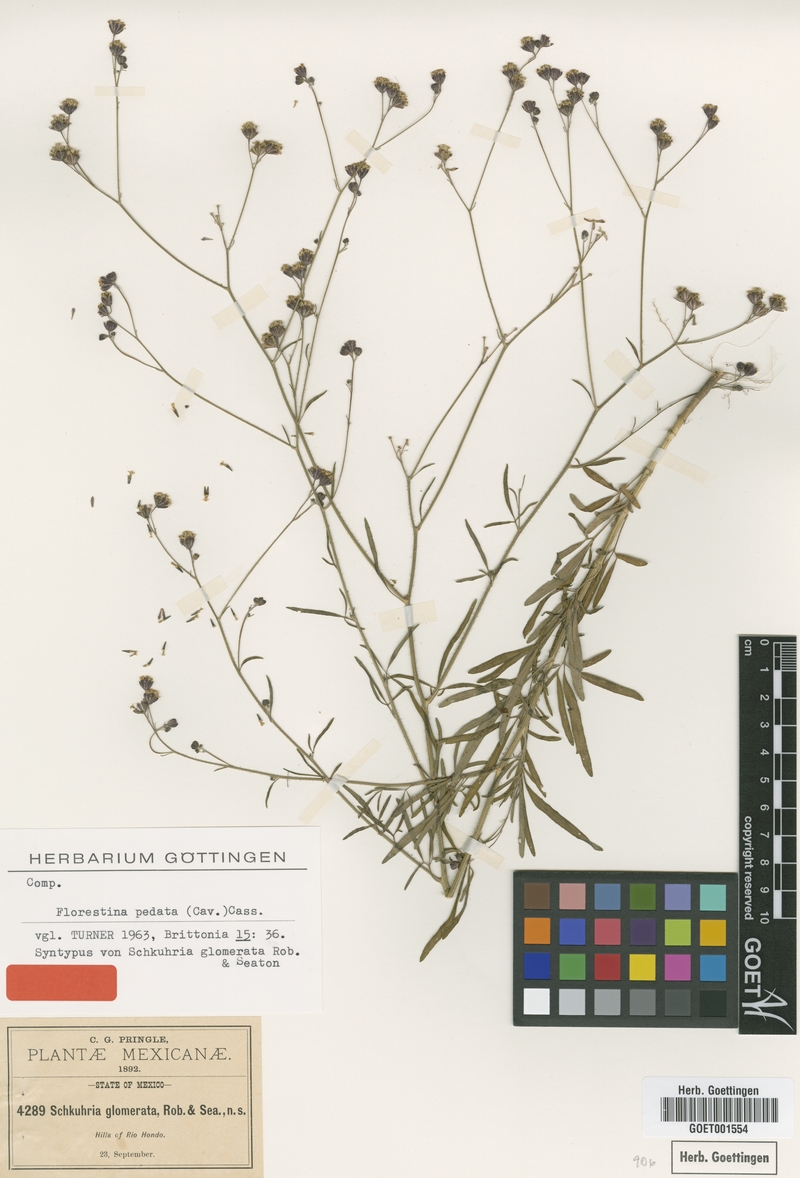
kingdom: Plantae
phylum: Tracheophyta
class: Magnoliopsida
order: Asterales
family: Asteraceae
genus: Florestina
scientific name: Florestina pedata
